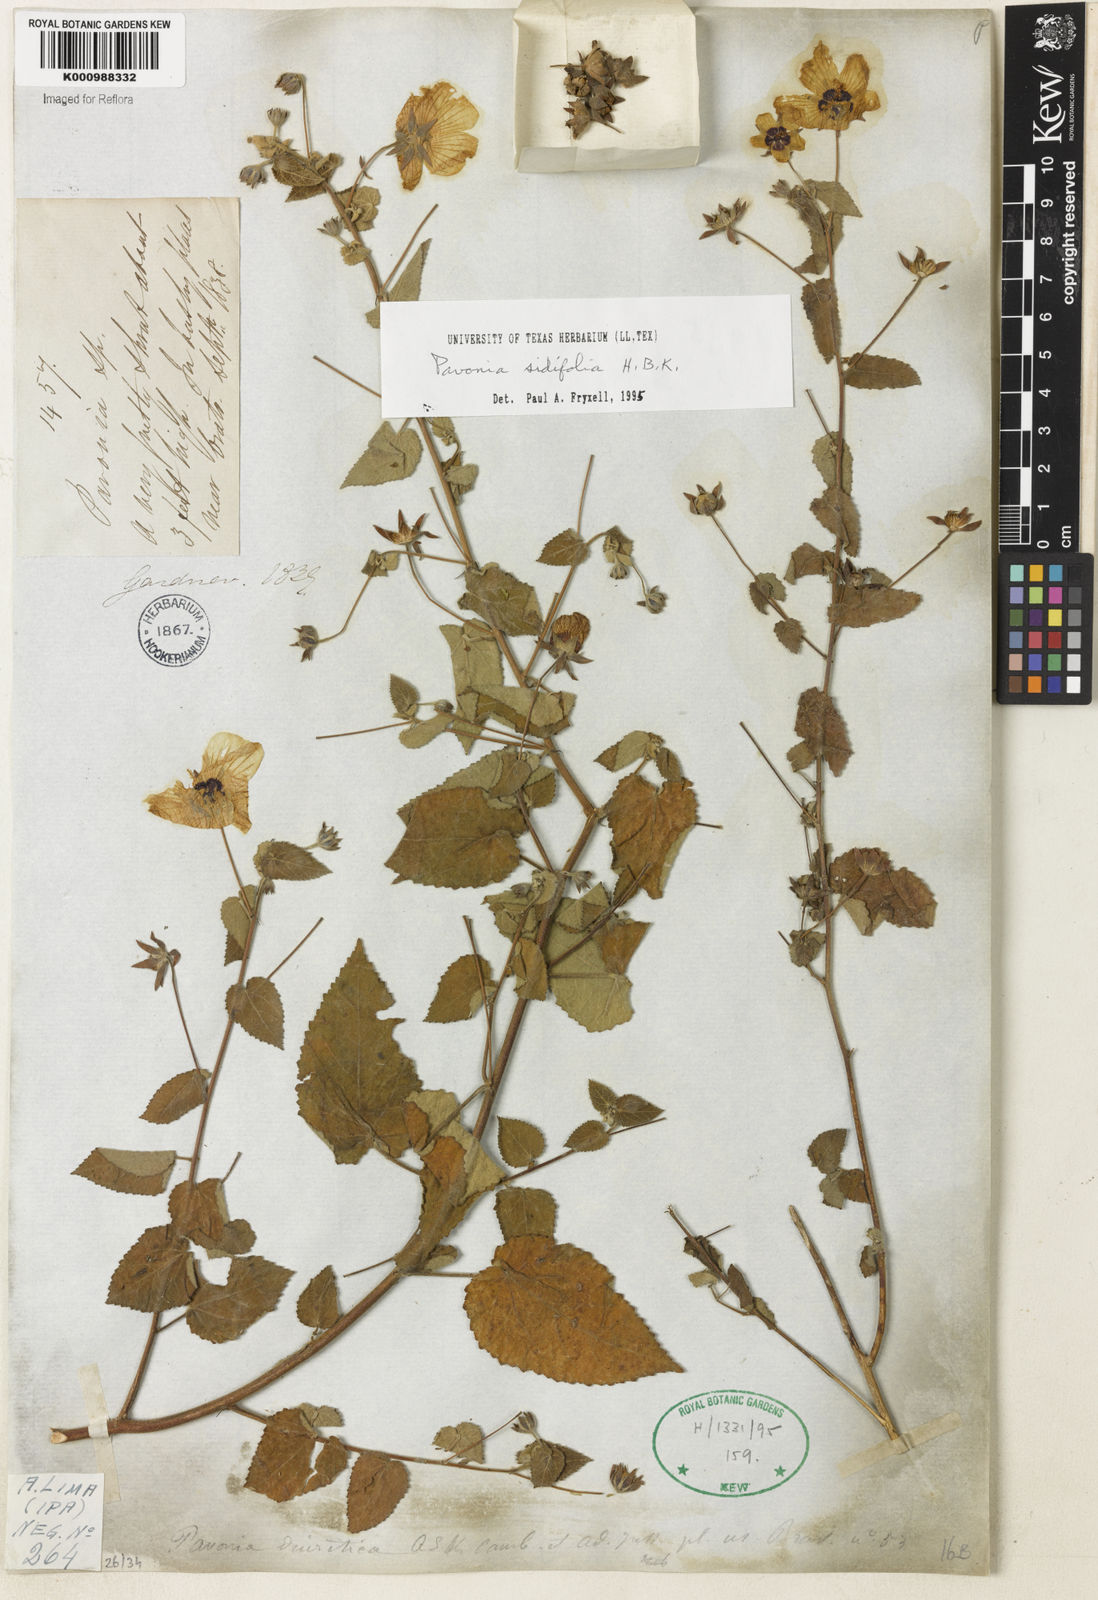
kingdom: Plantae
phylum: Tracheophyta
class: Magnoliopsida
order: Malvales
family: Malvaceae
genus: Pavonia
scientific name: Pavonia sidifolia
